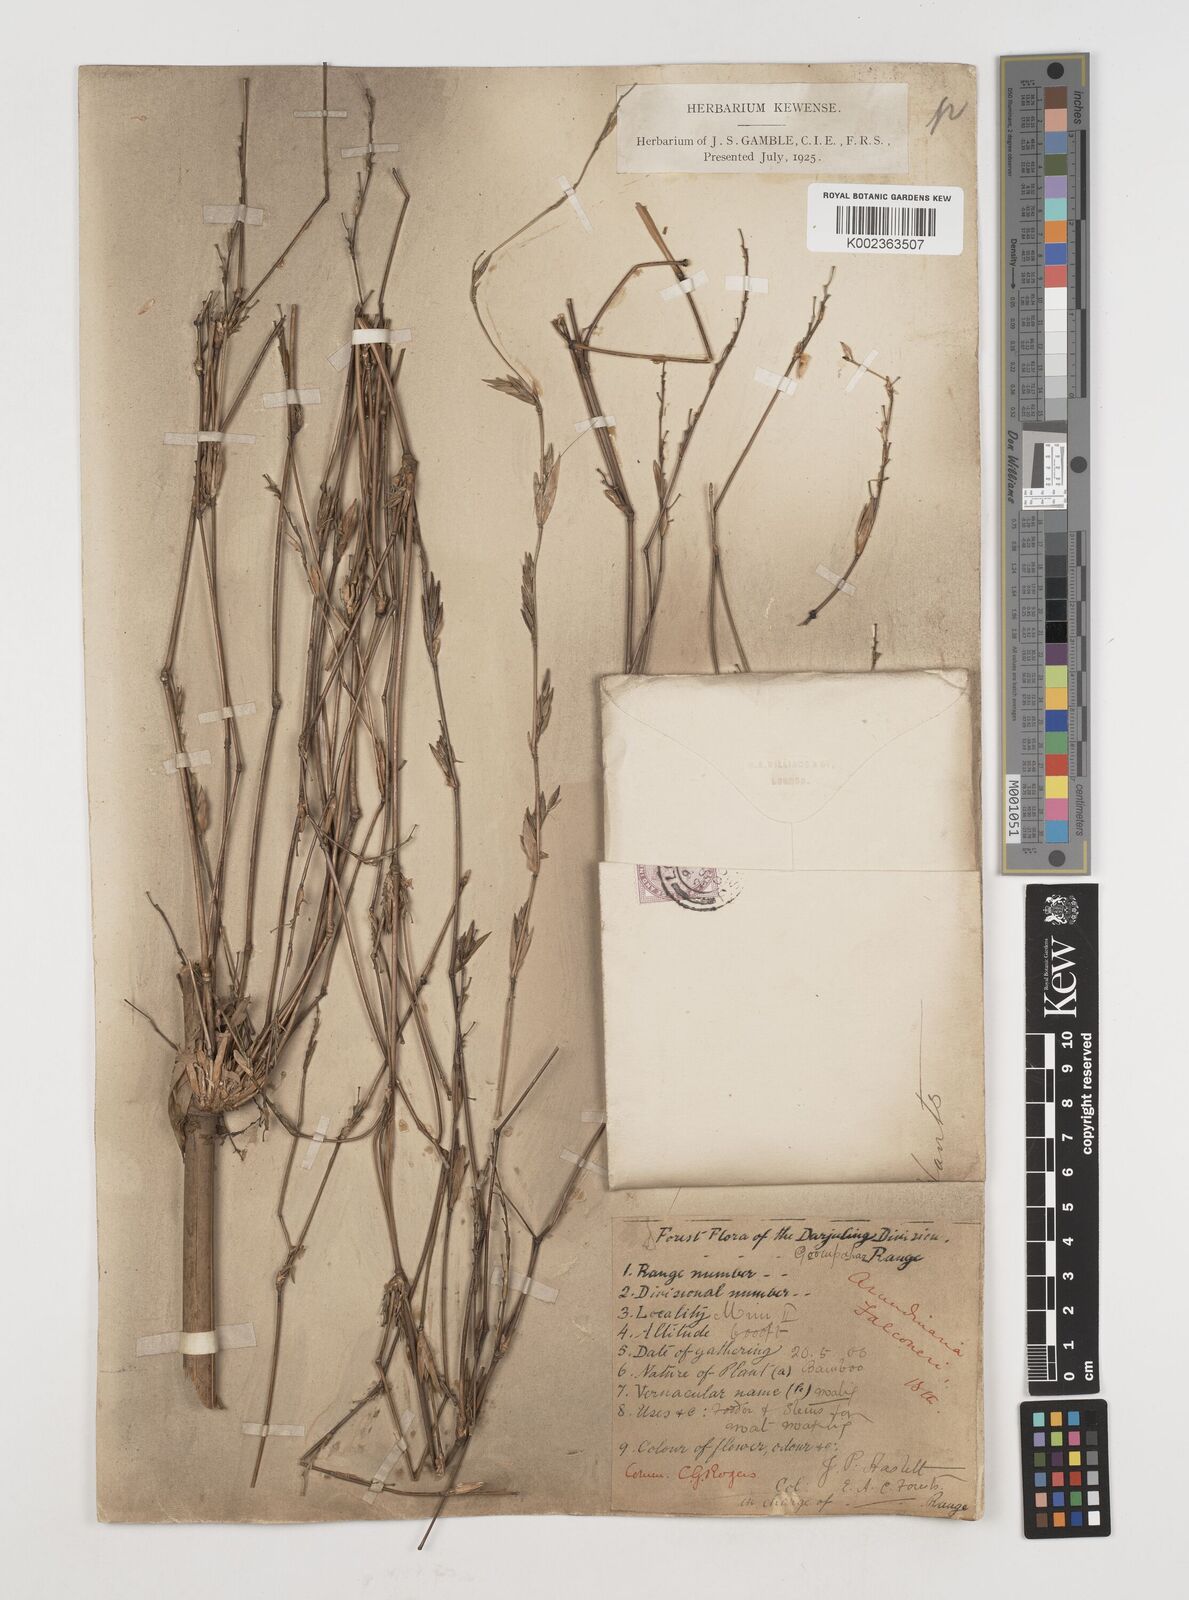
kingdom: Plantae
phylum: Tracheophyta
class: Liliopsida
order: Poales
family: Poaceae
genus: Himalayacalamus
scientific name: Himalayacalamus falconeri
